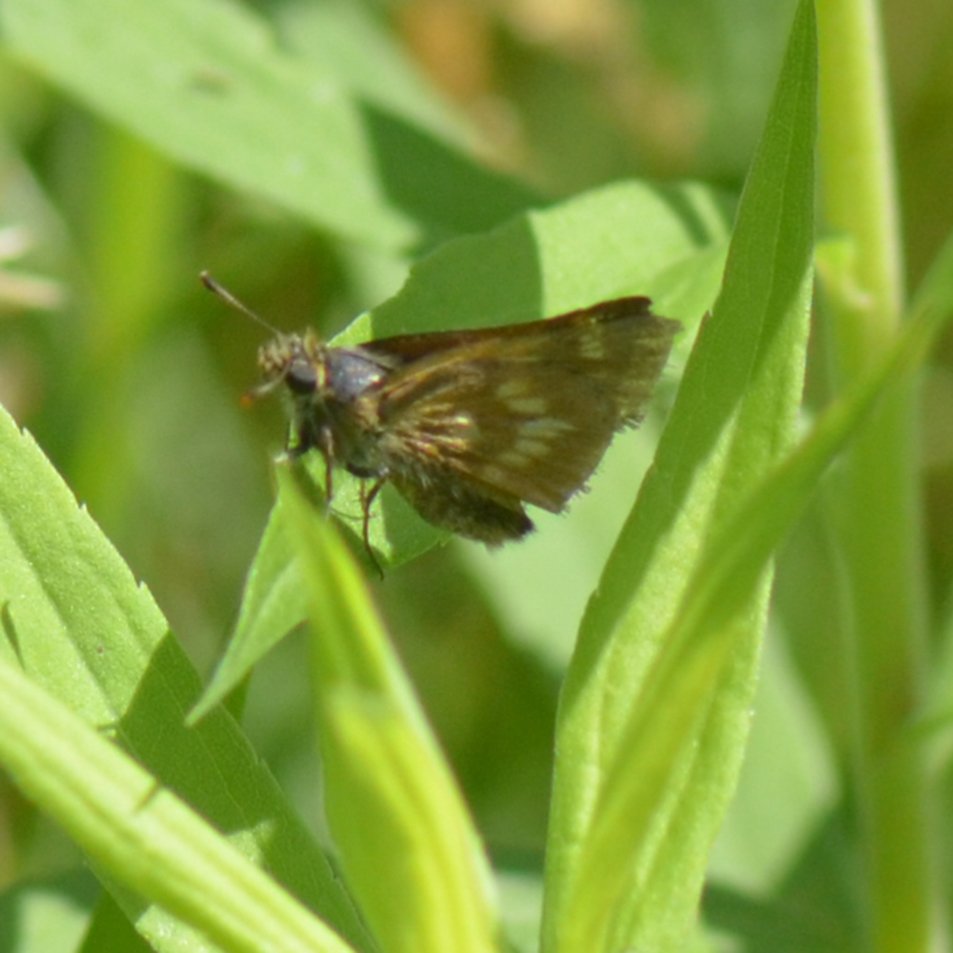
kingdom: Animalia
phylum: Arthropoda
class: Insecta
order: Lepidoptera
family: Hesperiidae
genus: Polites
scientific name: Polites
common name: Long Dash Skipper
